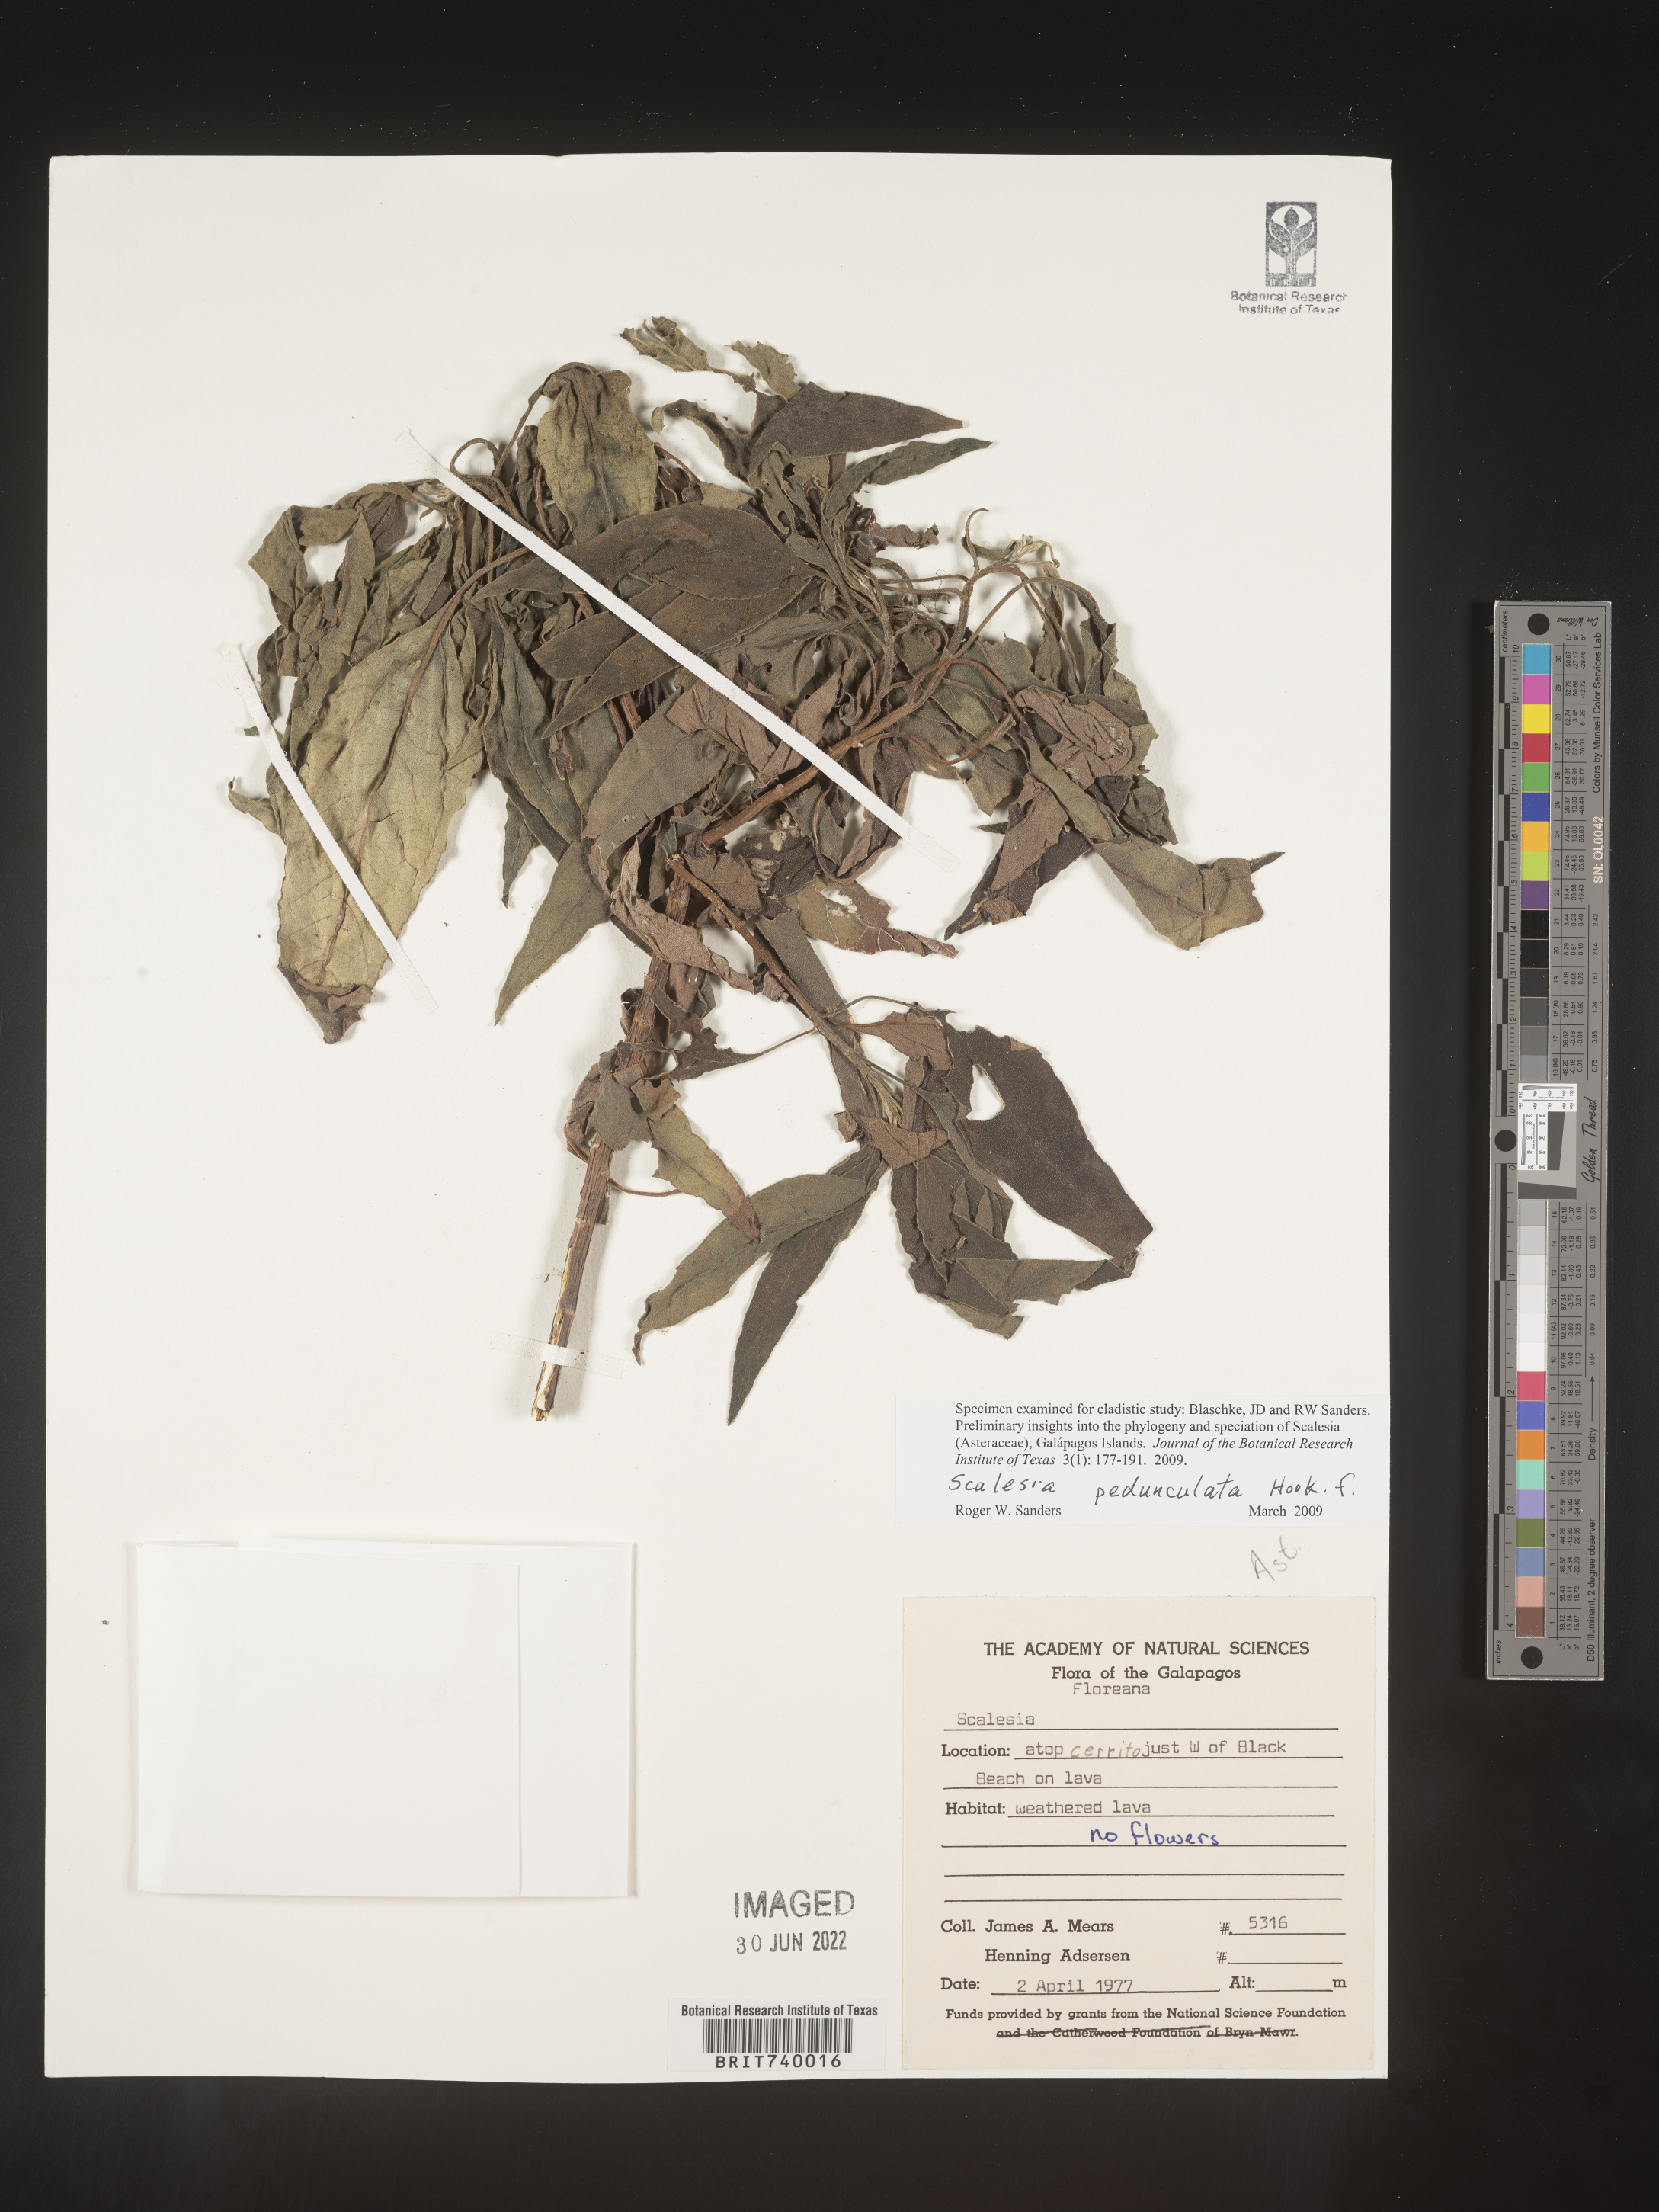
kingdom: Plantae
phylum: Tracheophyta
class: Magnoliopsida
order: Asterales
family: Asteraceae
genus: Scalesia
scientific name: Scalesia
